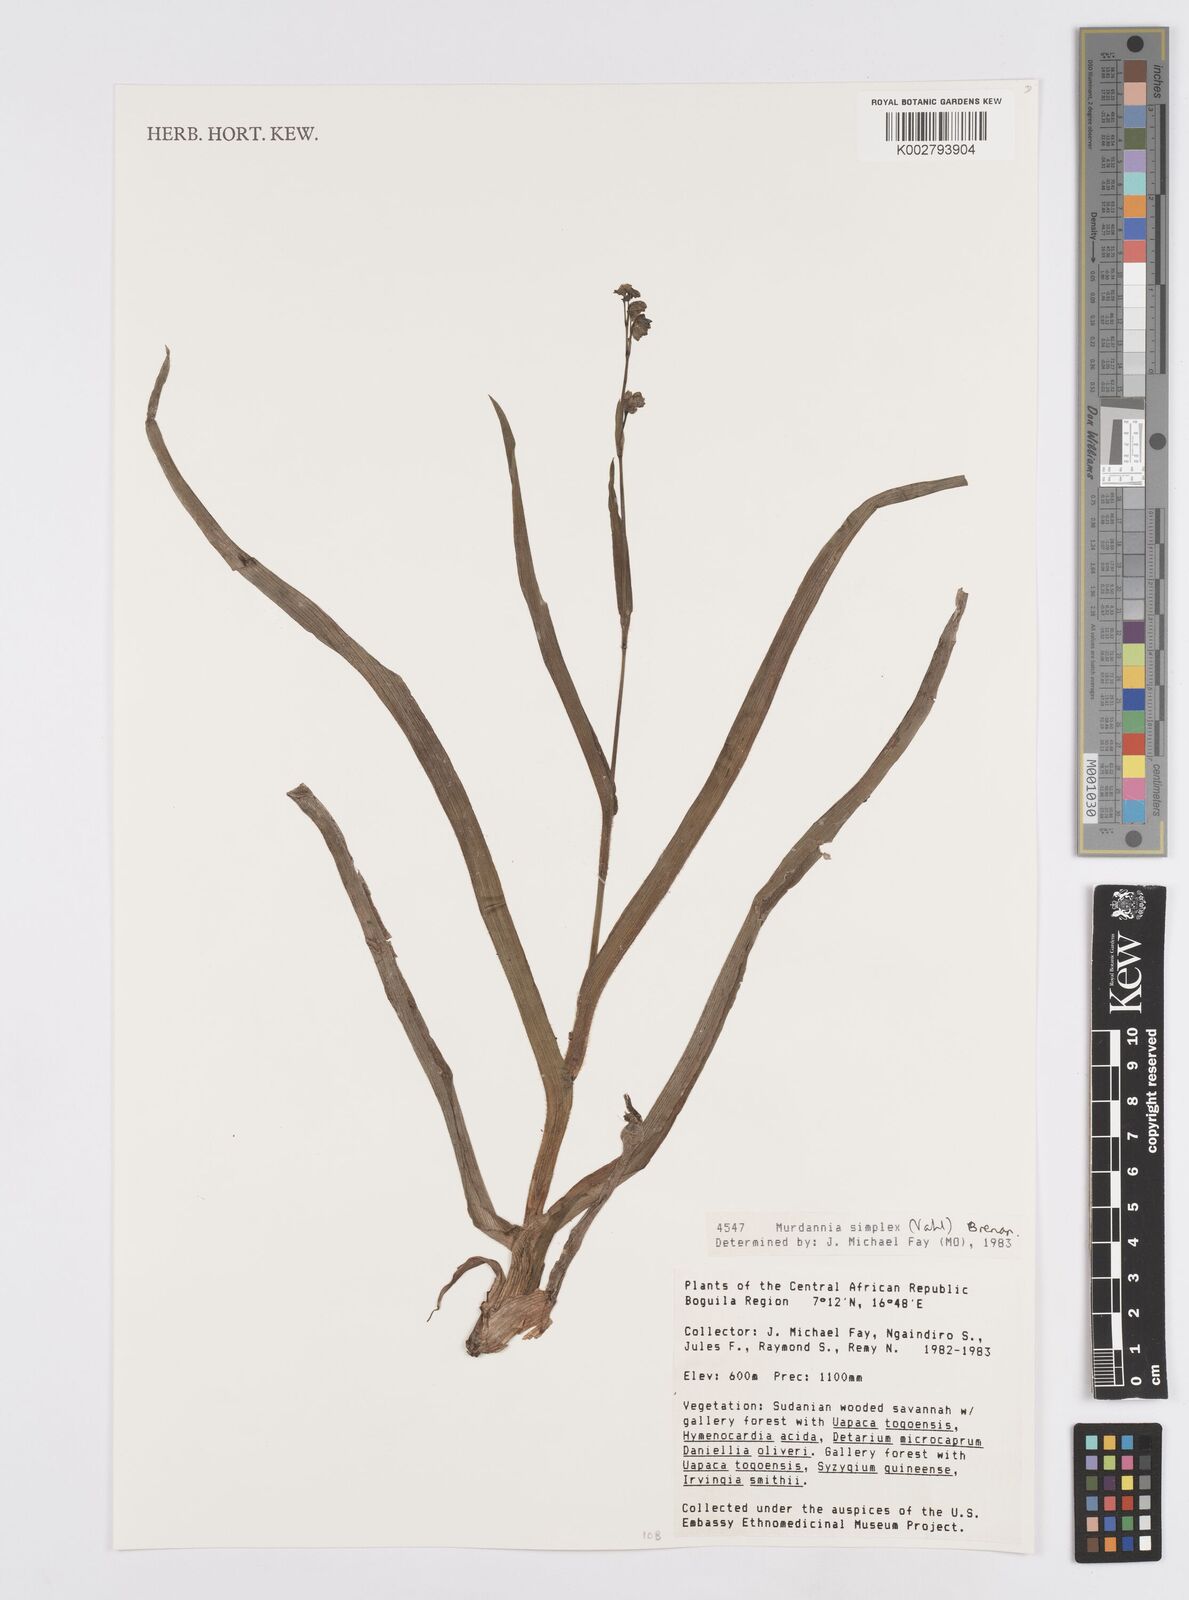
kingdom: Plantae
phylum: Tracheophyta
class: Liliopsida
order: Commelinales
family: Commelinaceae
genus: Murdannia
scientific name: Murdannia simplex
